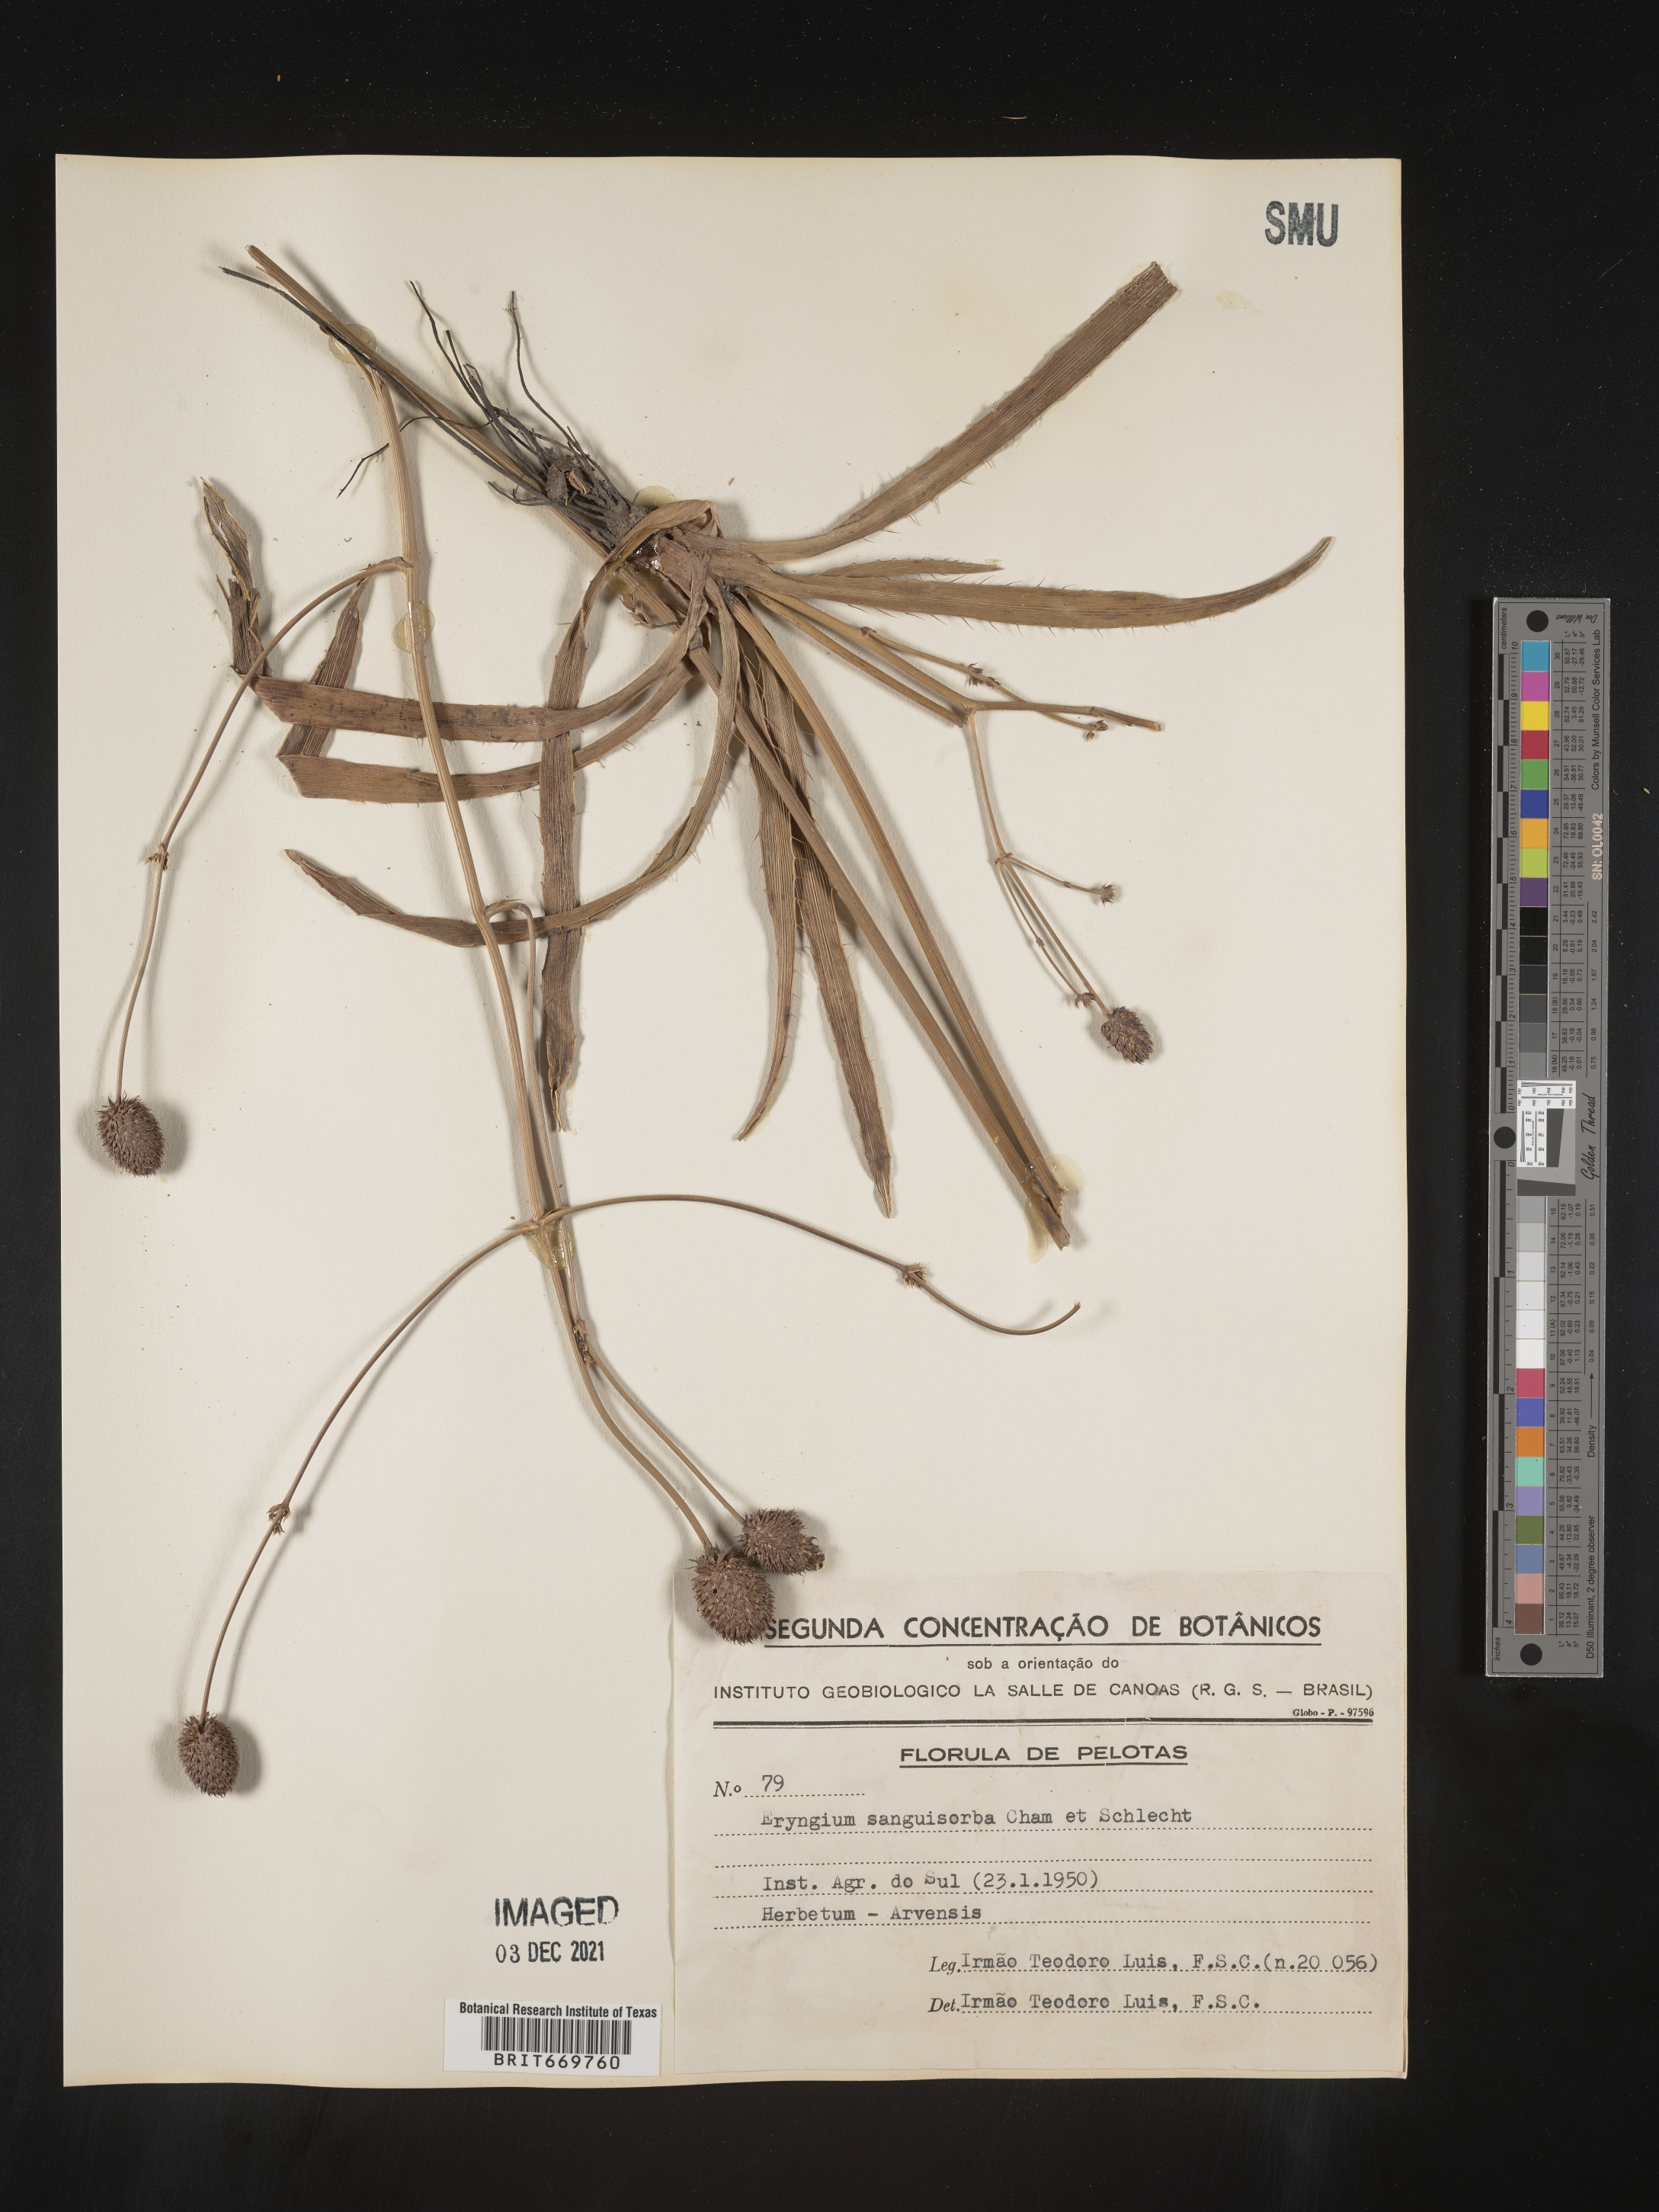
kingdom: Plantae
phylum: Tracheophyta
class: Magnoliopsida
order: Apiales
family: Apiaceae
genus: Eryngium
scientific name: Eryngium
